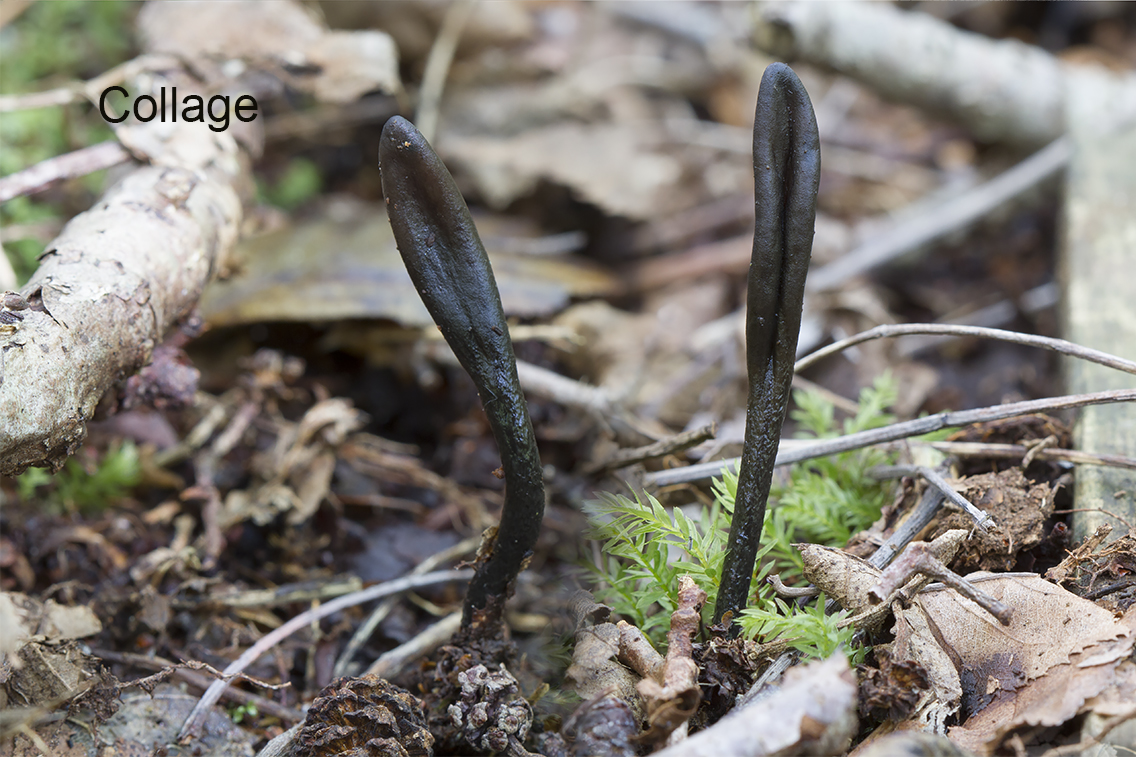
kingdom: Fungi
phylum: Ascomycota
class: Geoglossomycetes
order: Geoglossales
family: Geoglossaceae
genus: Glutinoglossum
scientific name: Glutinoglossum heptaseptatum
